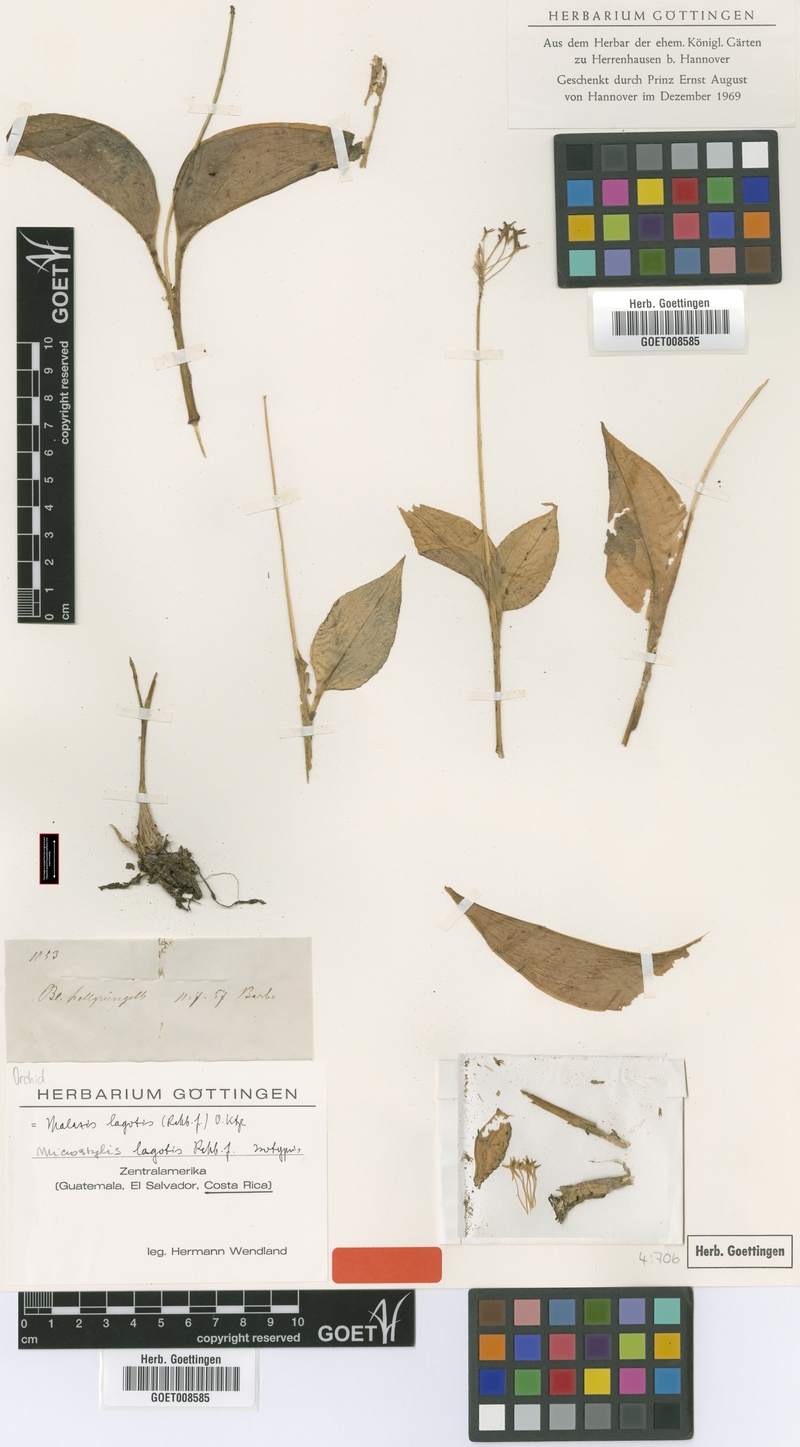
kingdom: Plantae
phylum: Tracheophyta
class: Liliopsida
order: Asparagales
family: Orchidaceae
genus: Malaxis
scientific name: Malaxis lagotis
